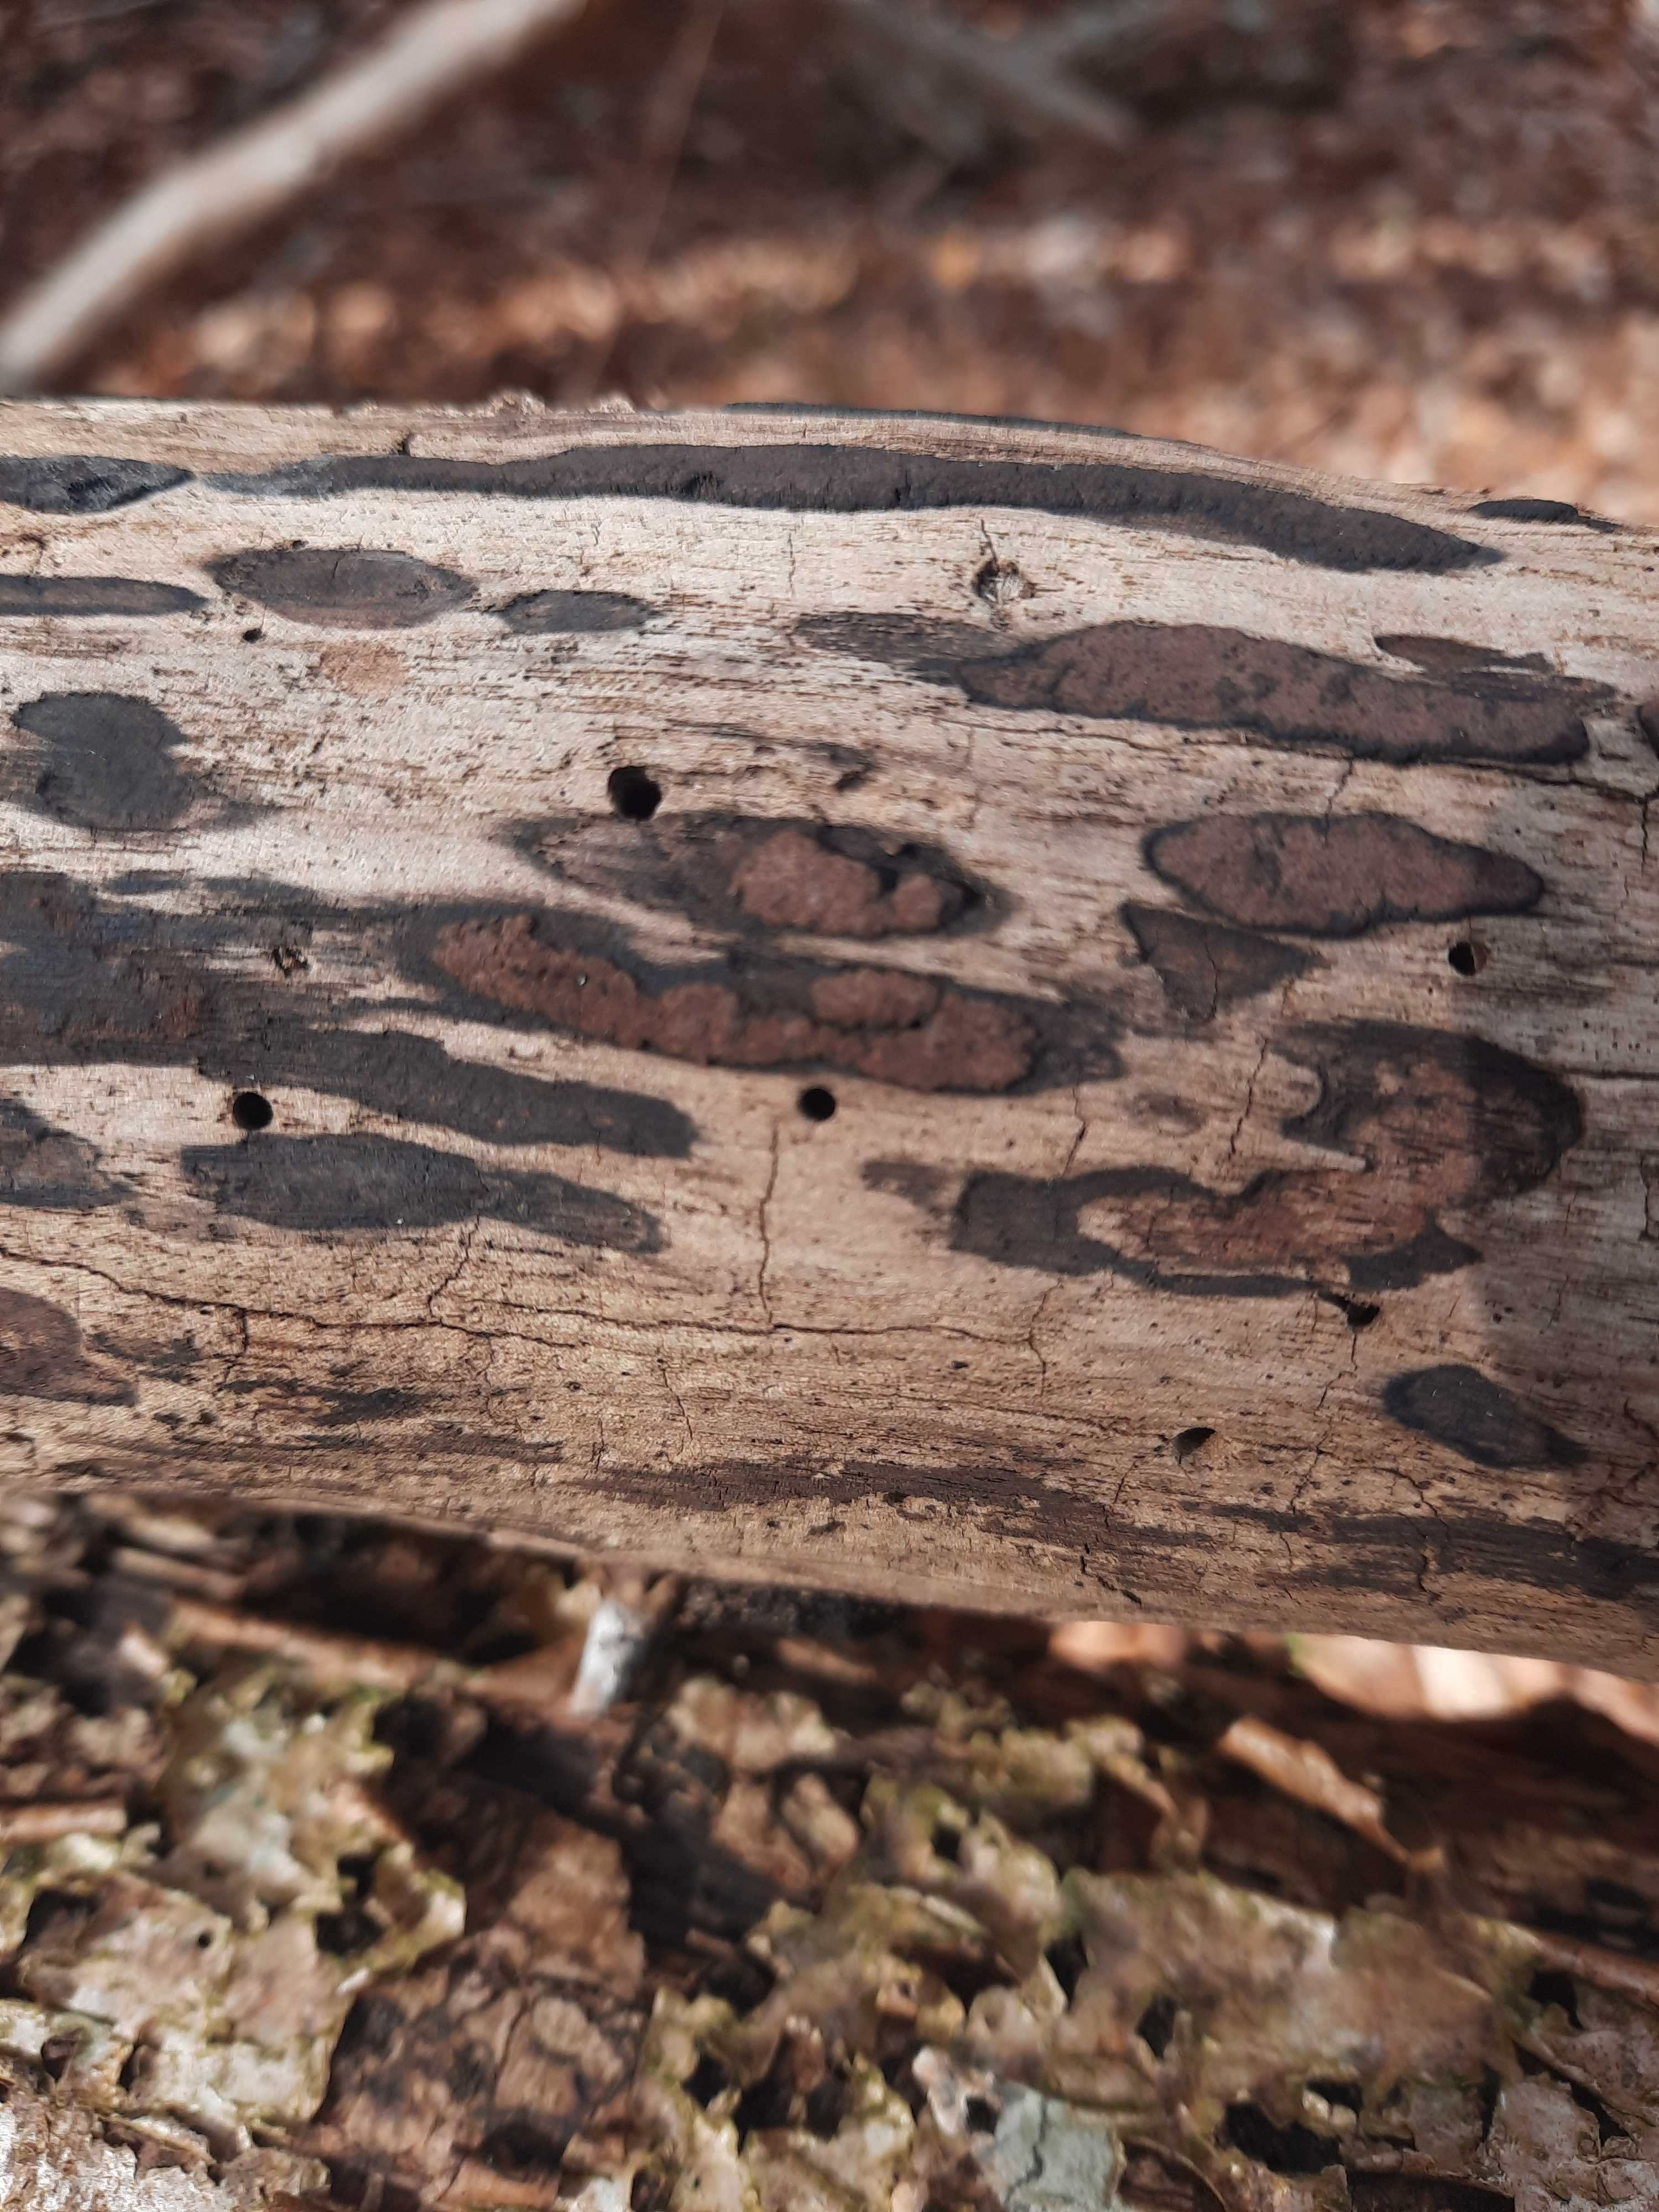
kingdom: Fungi
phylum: Ascomycota
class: Sordariomycetes
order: Xylariales
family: Hypoxylaceae
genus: Hypoxylon
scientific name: Hypoxylon petriniae
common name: nedsænket kulbær
